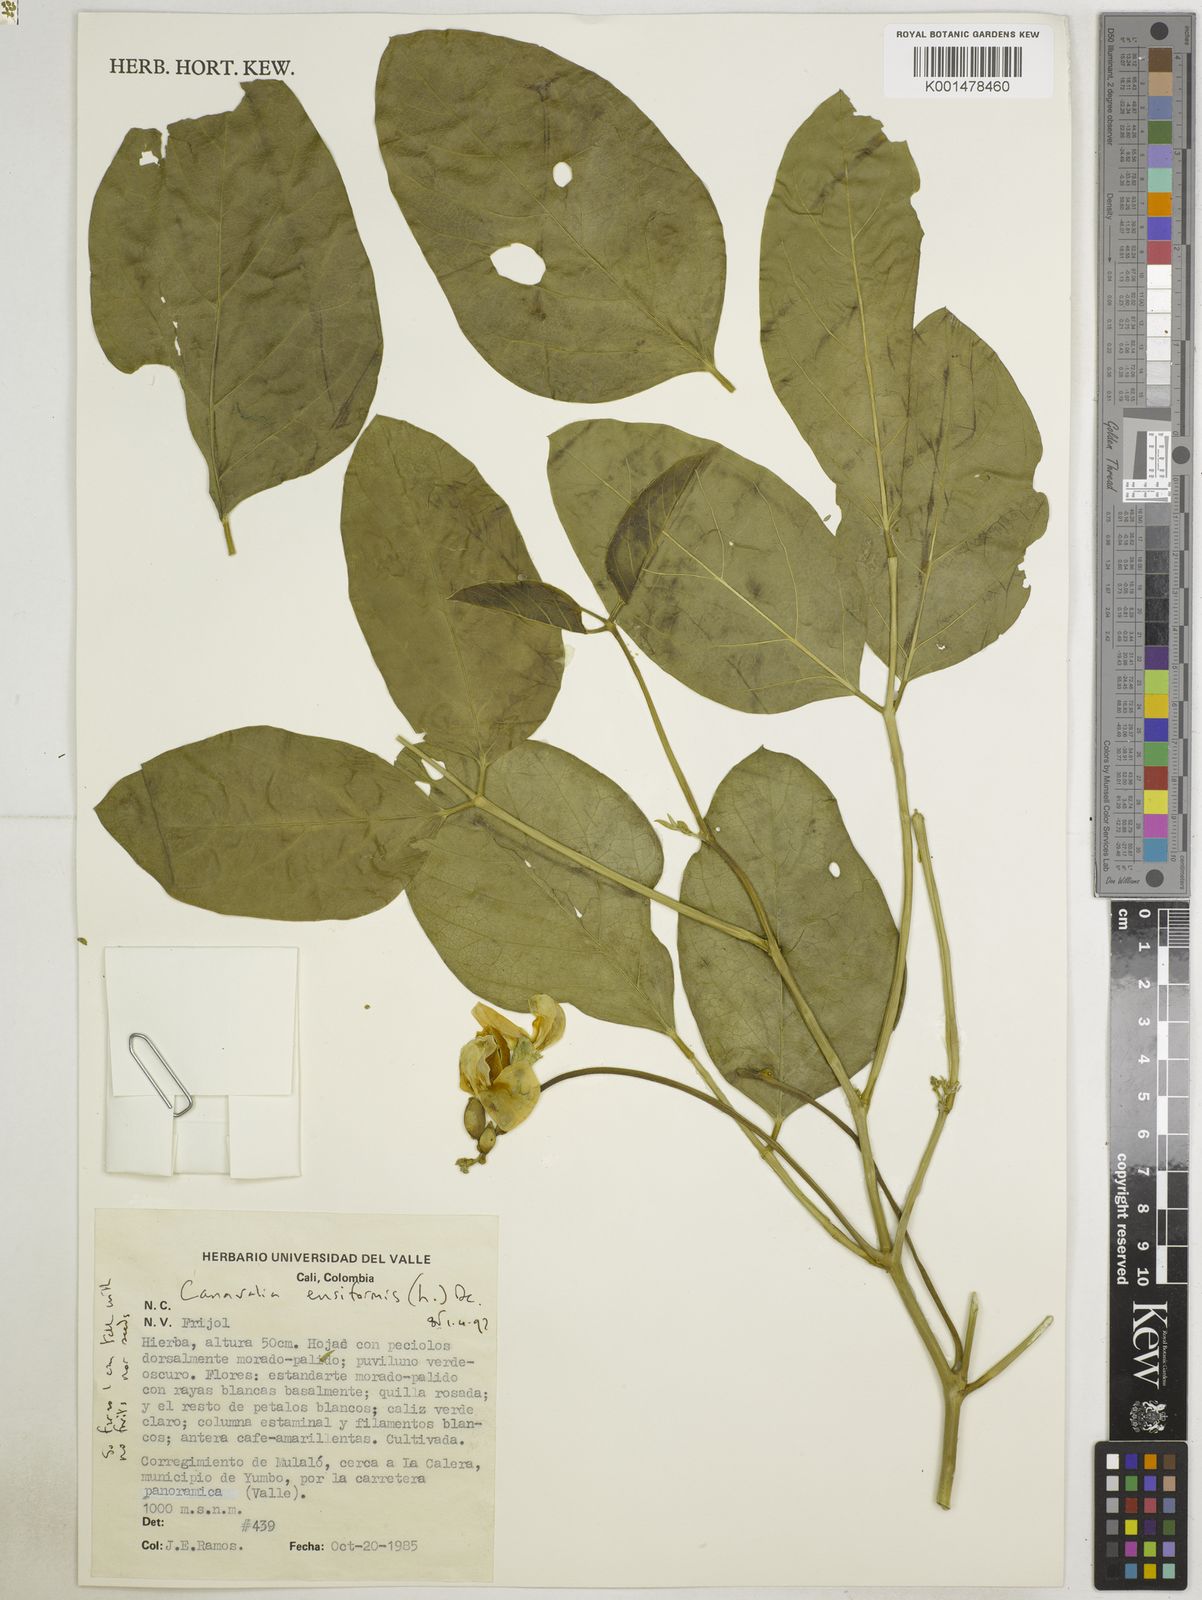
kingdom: Plantae
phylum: Tracheophyta
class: Magnoliopsida
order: Fabales
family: Fabaceae
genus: Canavalia
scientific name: Canavalia ensiformis
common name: Jack bean
